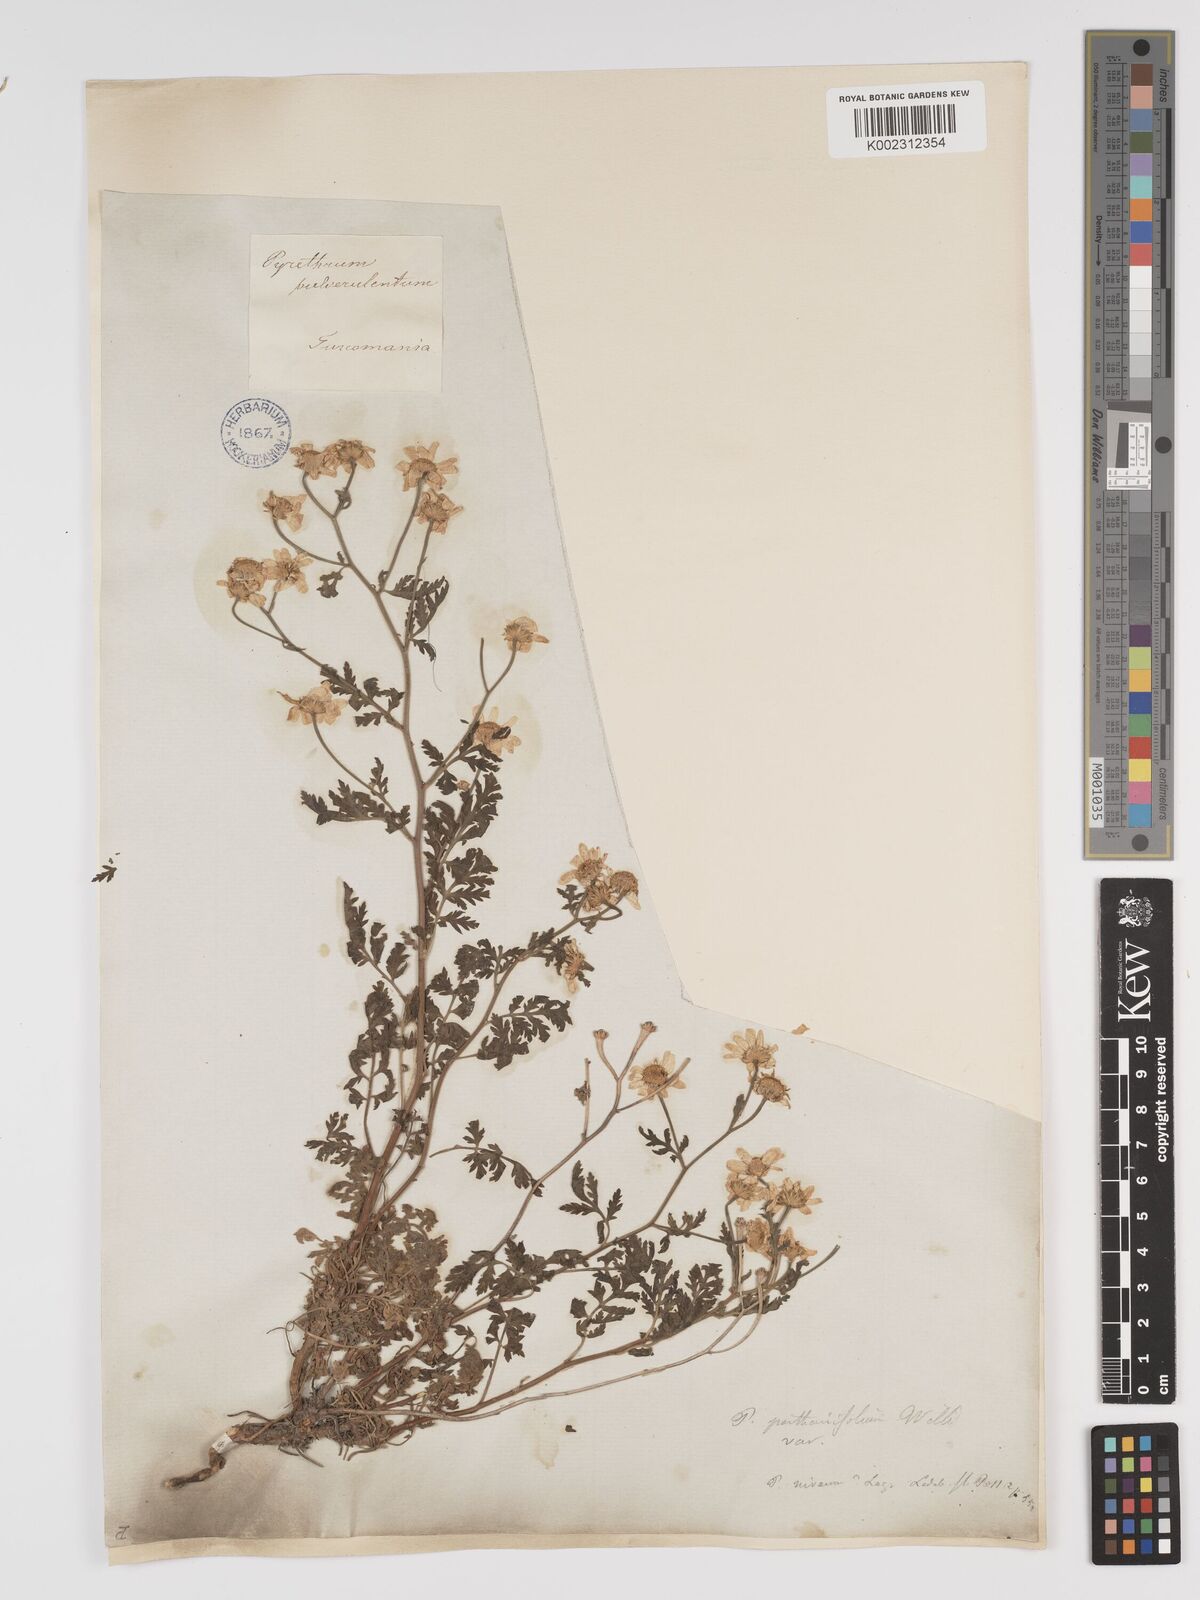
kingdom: Plantae
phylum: Tracheophyta
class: Magnoliopsida
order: Asterales
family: Asteraceae
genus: Tanacetum
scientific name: Tanacetum
